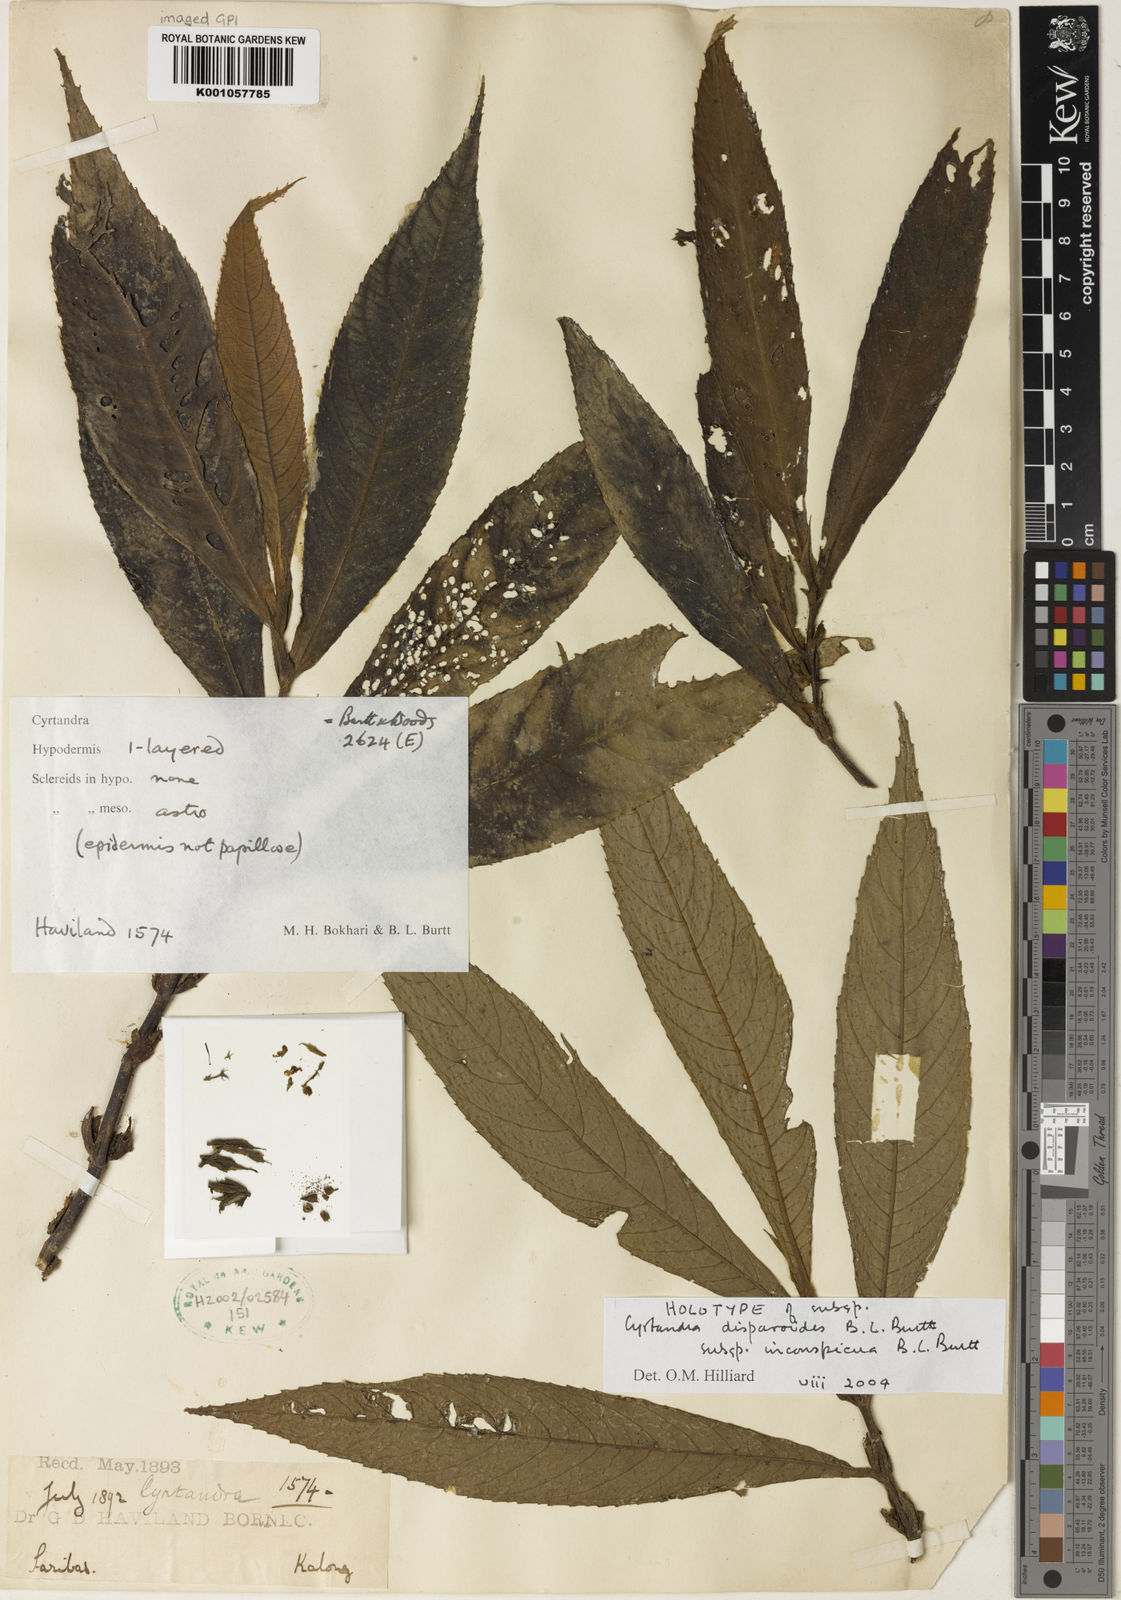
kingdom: Plantae
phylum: Tracheophyta
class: Magnoliopsida
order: Lamiales
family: Gesneriaceae
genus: Cyrtandra
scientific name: Cyrtandra disparoides
